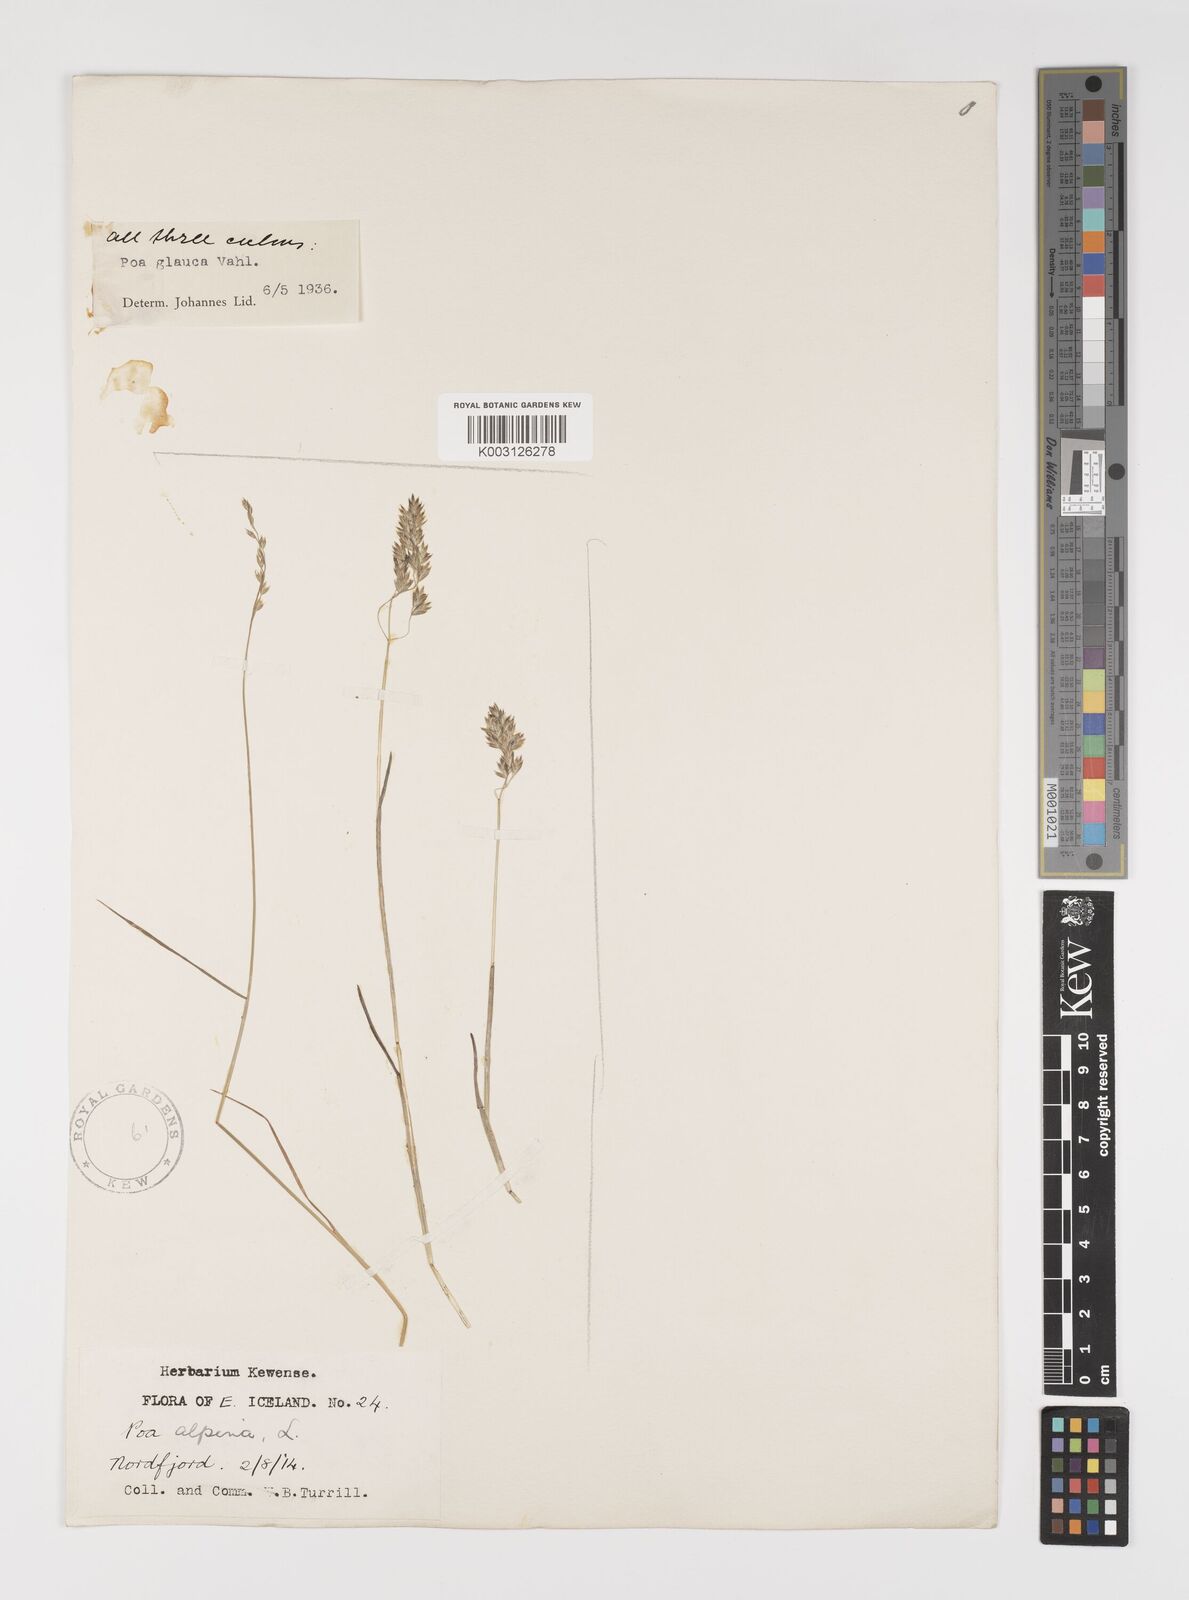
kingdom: Plantae
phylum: Tracheophyta
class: Liliopsida
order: Poales
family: Poaceae
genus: Poa
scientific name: Poa glauca
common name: Glaucous bluegrass
